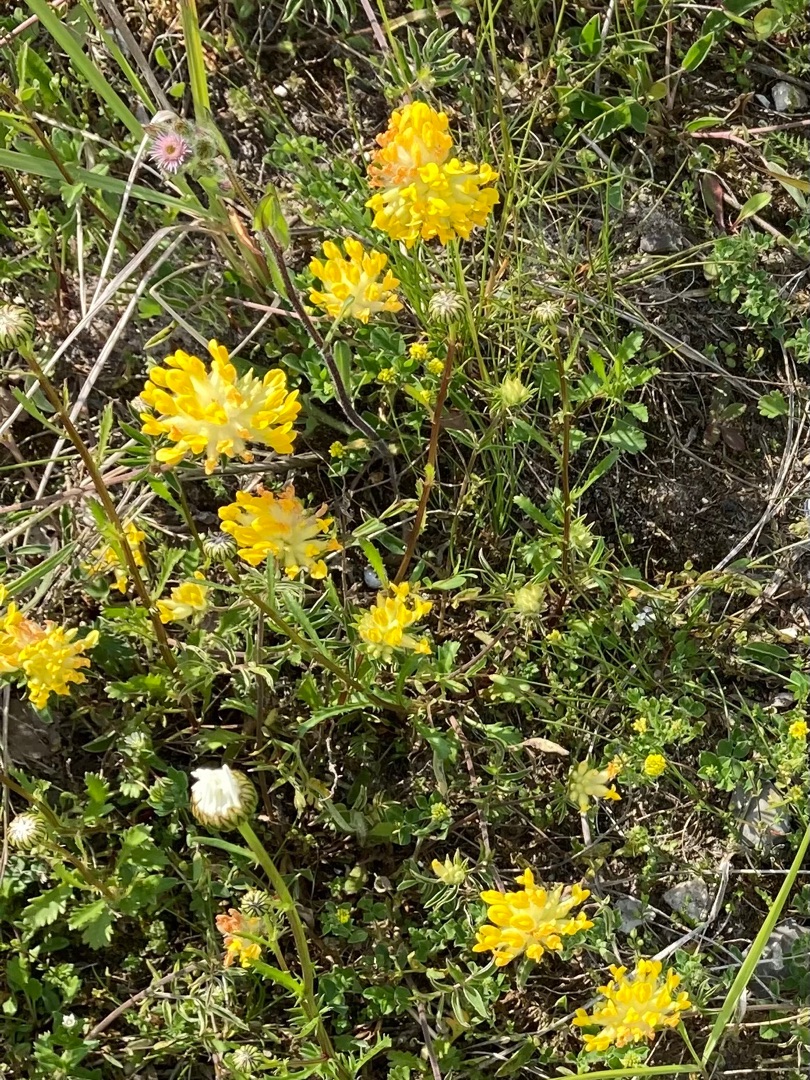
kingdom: Plantae
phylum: Tracheophyta
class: Magnoliopsida
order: Fabales
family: Fabaceae
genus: Anthyllis
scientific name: Anthyllis vulneraria
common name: Rundbælg
